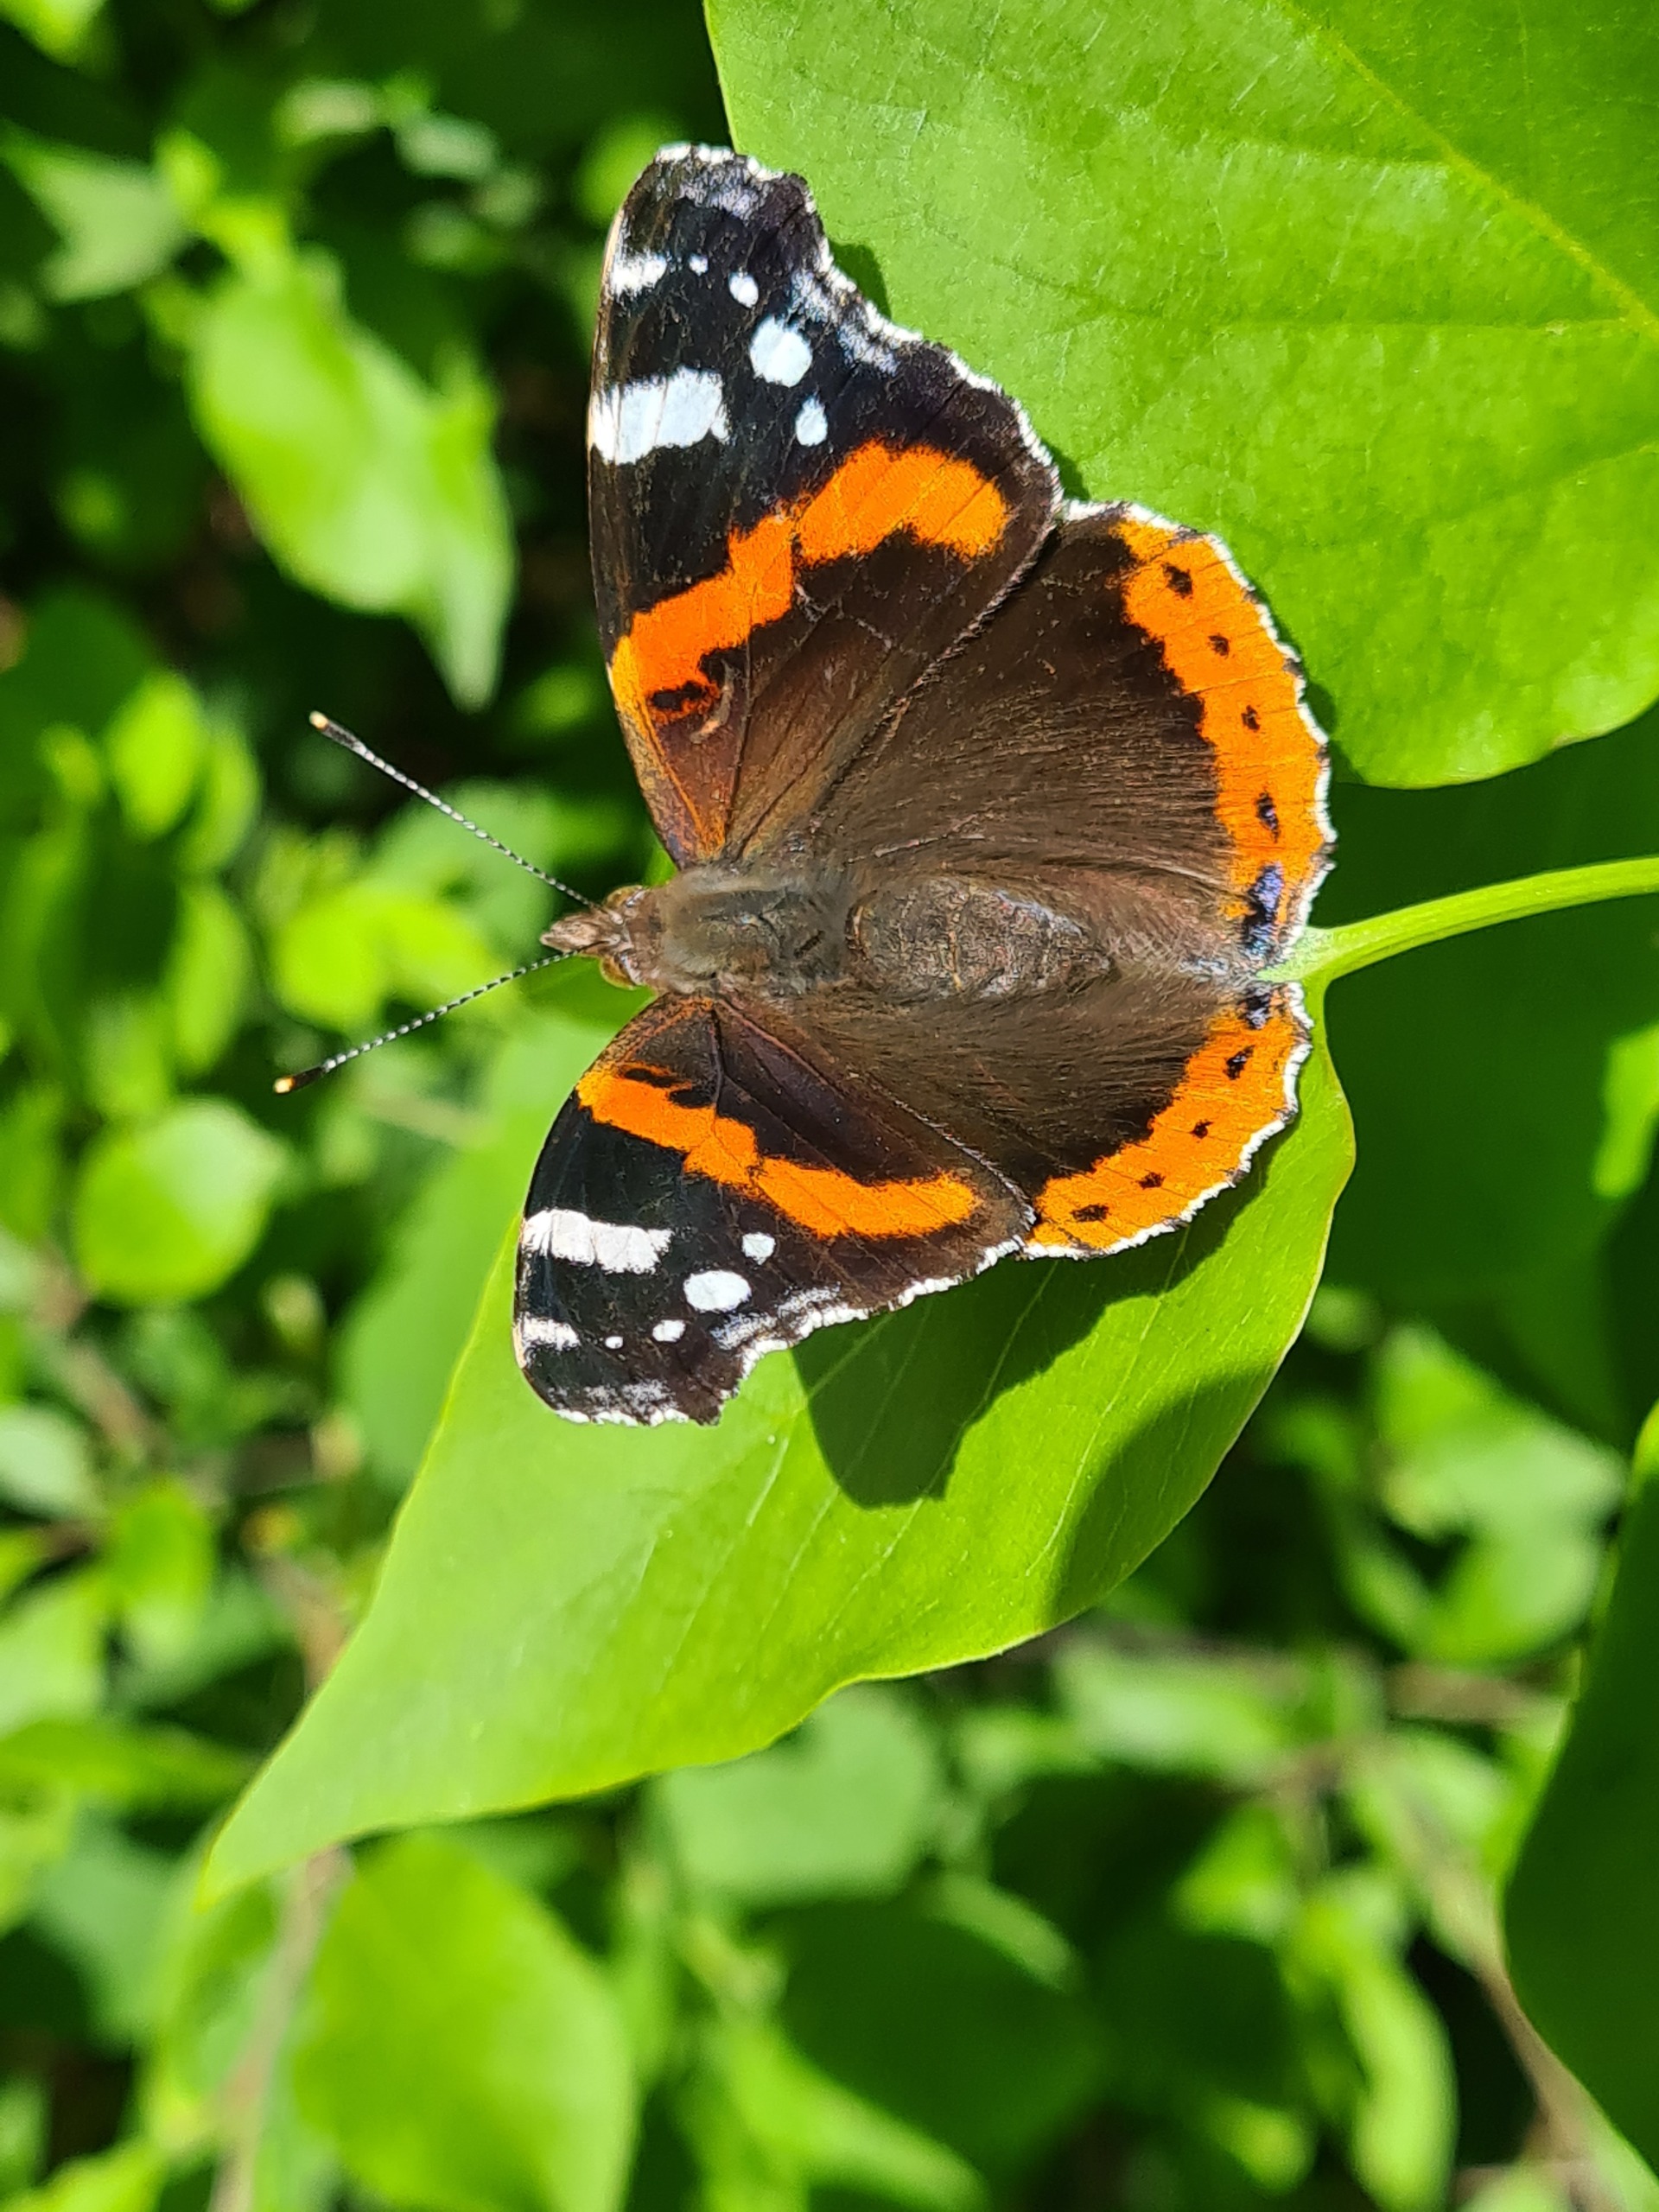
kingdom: Animalia
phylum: Arthropoda
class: Insecta
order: Lepidoptera
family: Nymphalidae
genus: Vanessa
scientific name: Vanessa atalanta
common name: Admiral
